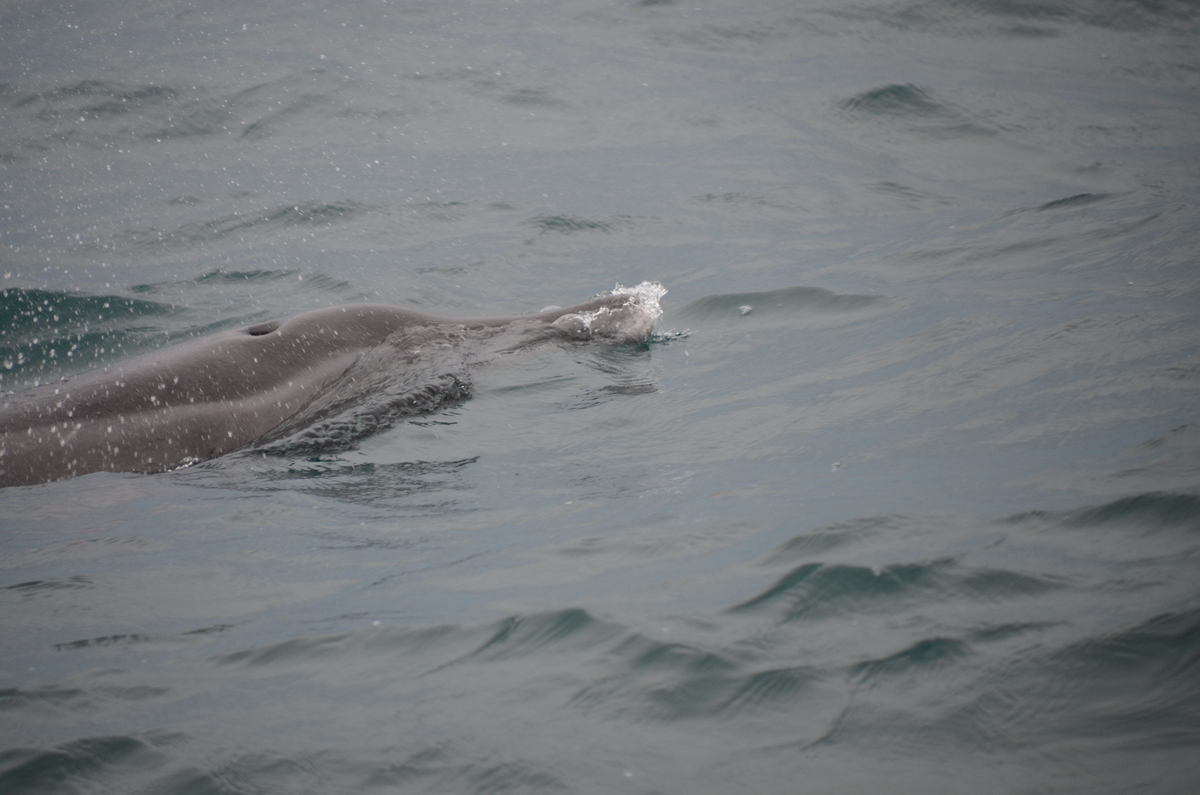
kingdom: Animalia
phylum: Chordata
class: Mammalia
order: Cetacea
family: Delphinidae
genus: Steno
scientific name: Steno bredanensis
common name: Rough-toothed Dolphin
